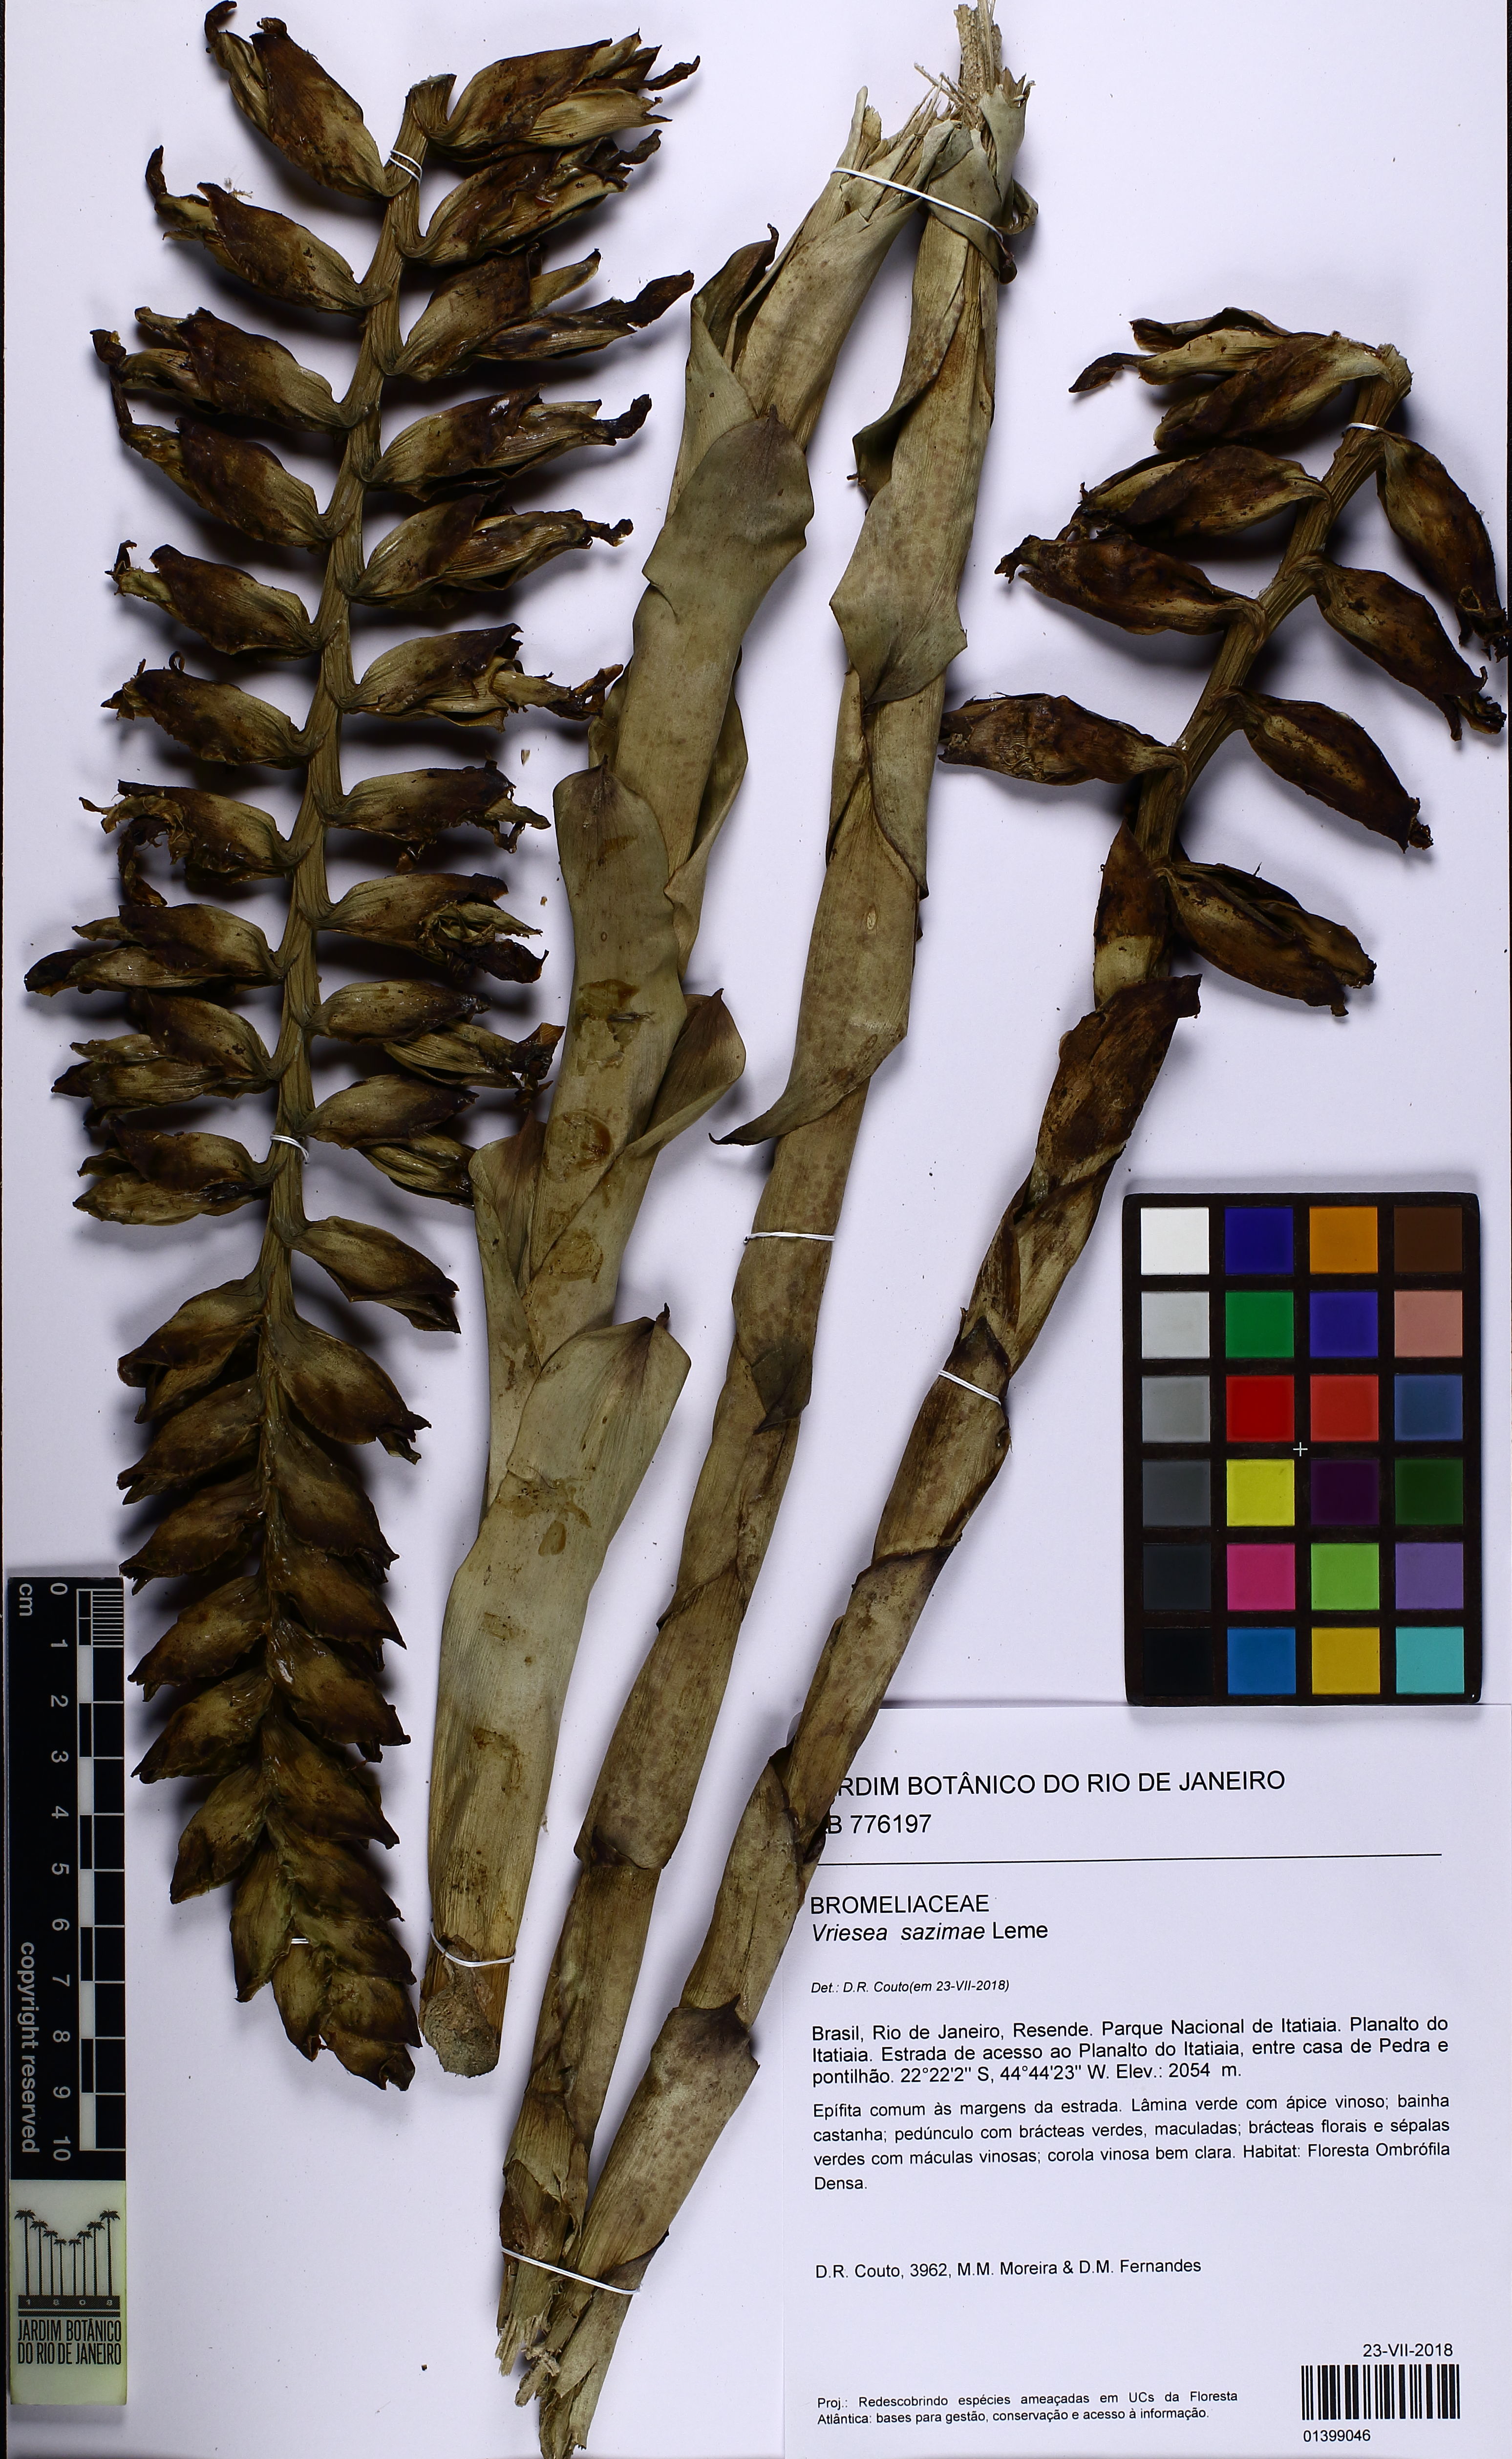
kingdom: Plantae
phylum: Tracheophyta
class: Liliopsida
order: Poales
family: Bromeliaceae
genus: Vriesea
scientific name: Vriesea sazimae
